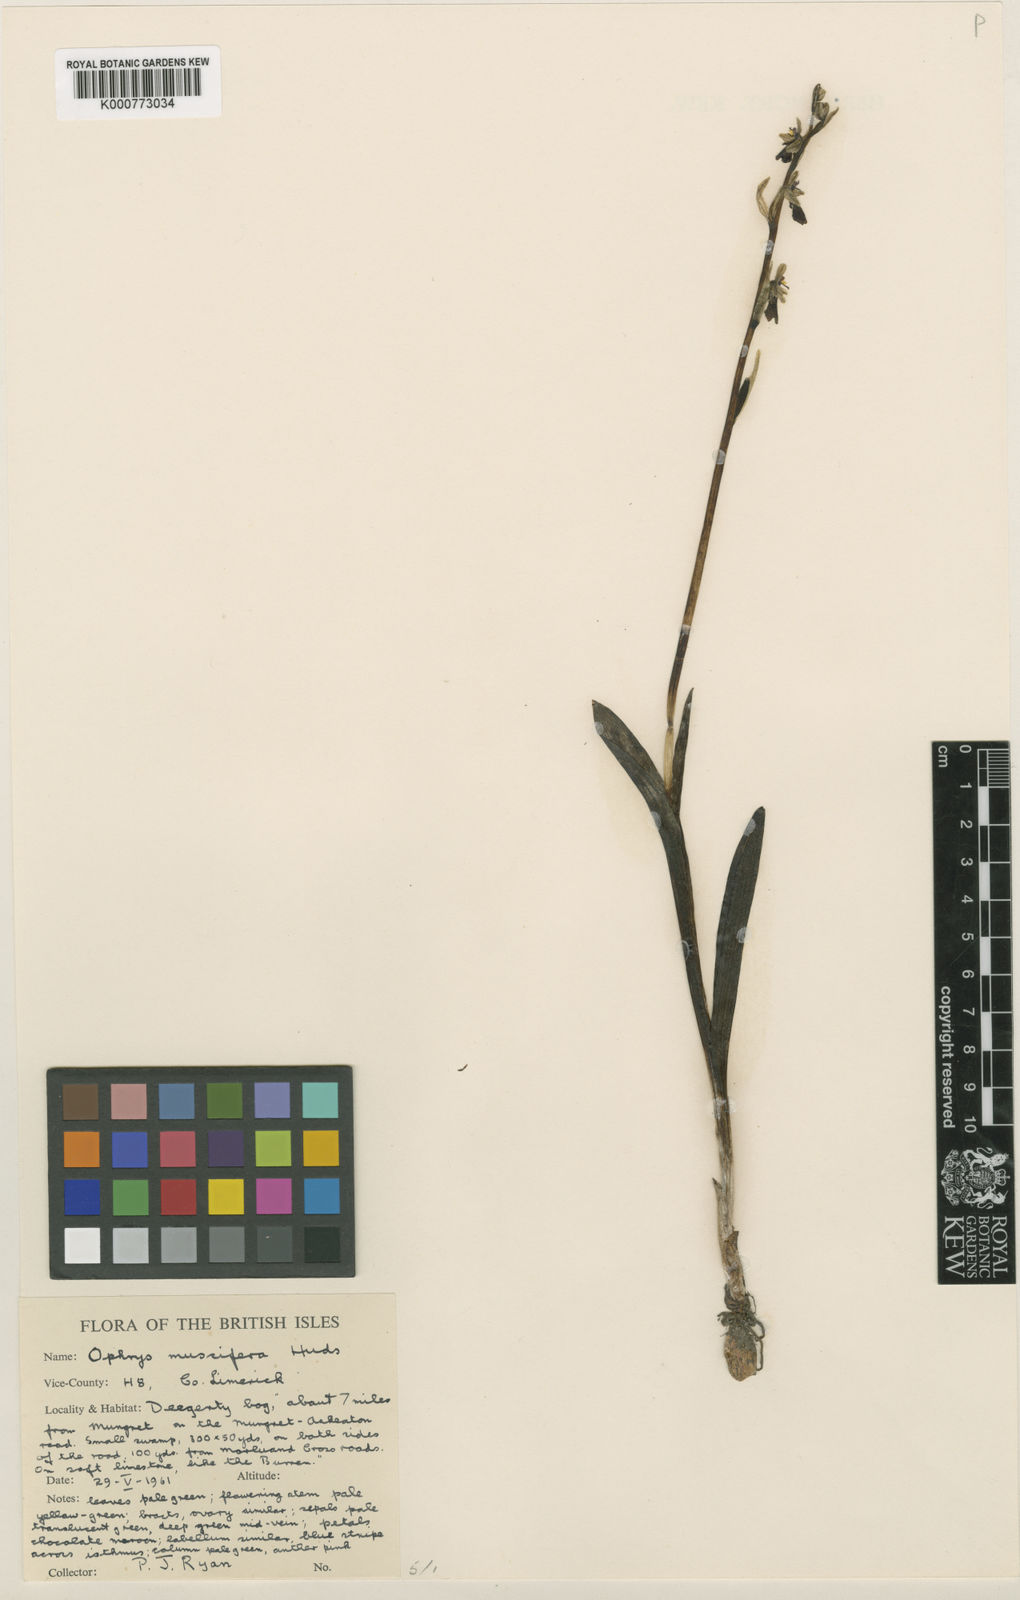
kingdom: Plantae
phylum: Tracheophyta
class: Liliopsida
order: Asparagales
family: Orchidaceae
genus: Ophrys
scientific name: Ophrys insectifera
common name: Fly orchid
